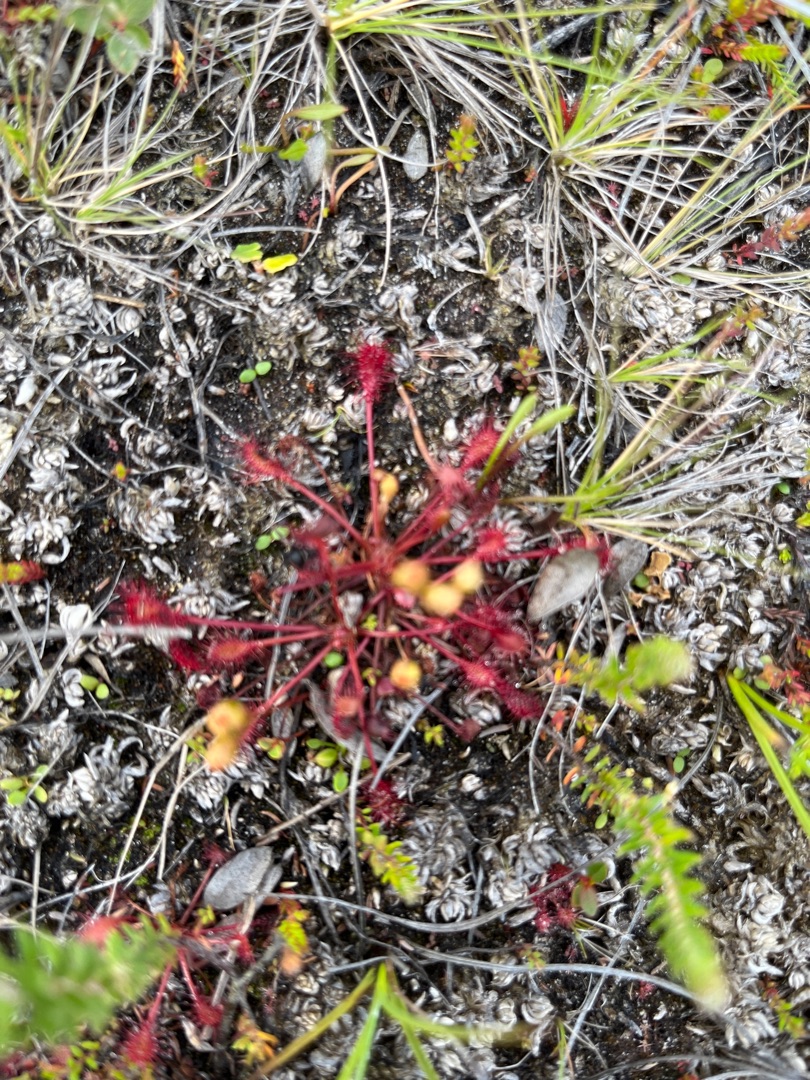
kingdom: Plantae
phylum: Tracheophyta
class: Magnoliopsida
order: Caryophyllales
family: Droseraceae
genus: Drosera
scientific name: Drosera intermedia
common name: Liden soldug
